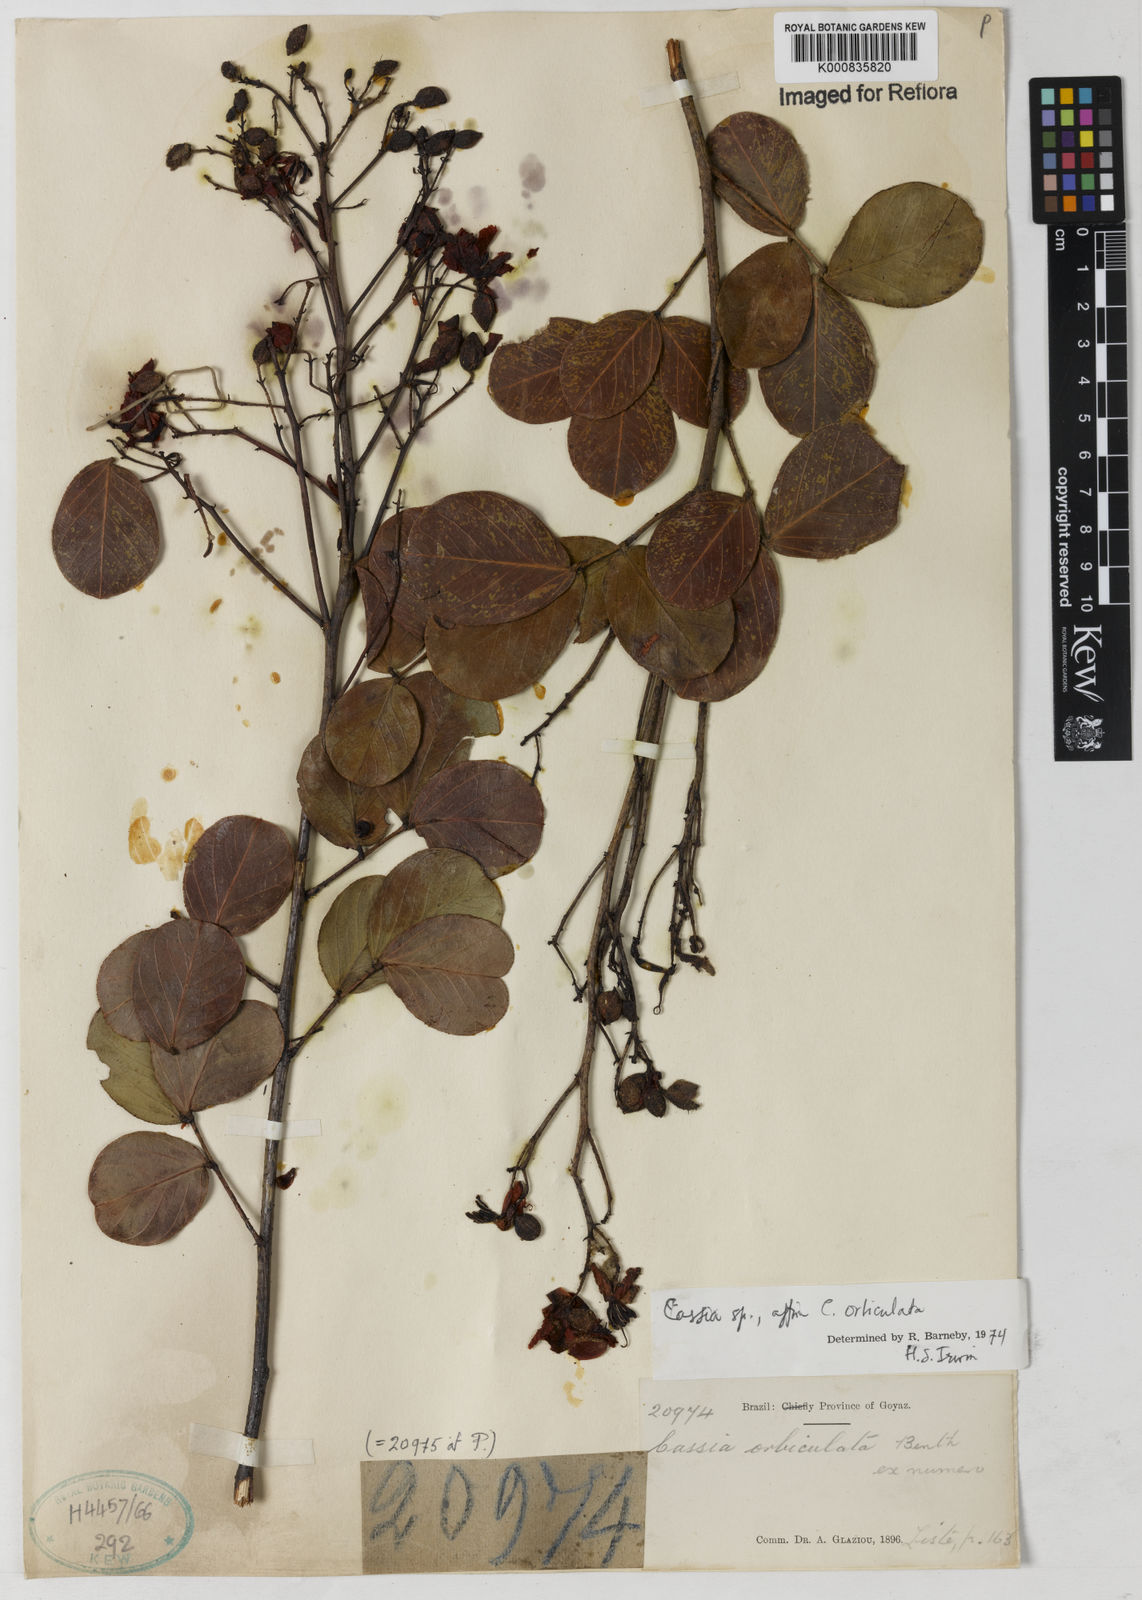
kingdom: Plantae
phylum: Tracheophyta
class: Magnoliopsida
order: Fabales
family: Fabaceae
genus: Chamaecrista
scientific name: Chamaecrista orbiculata
